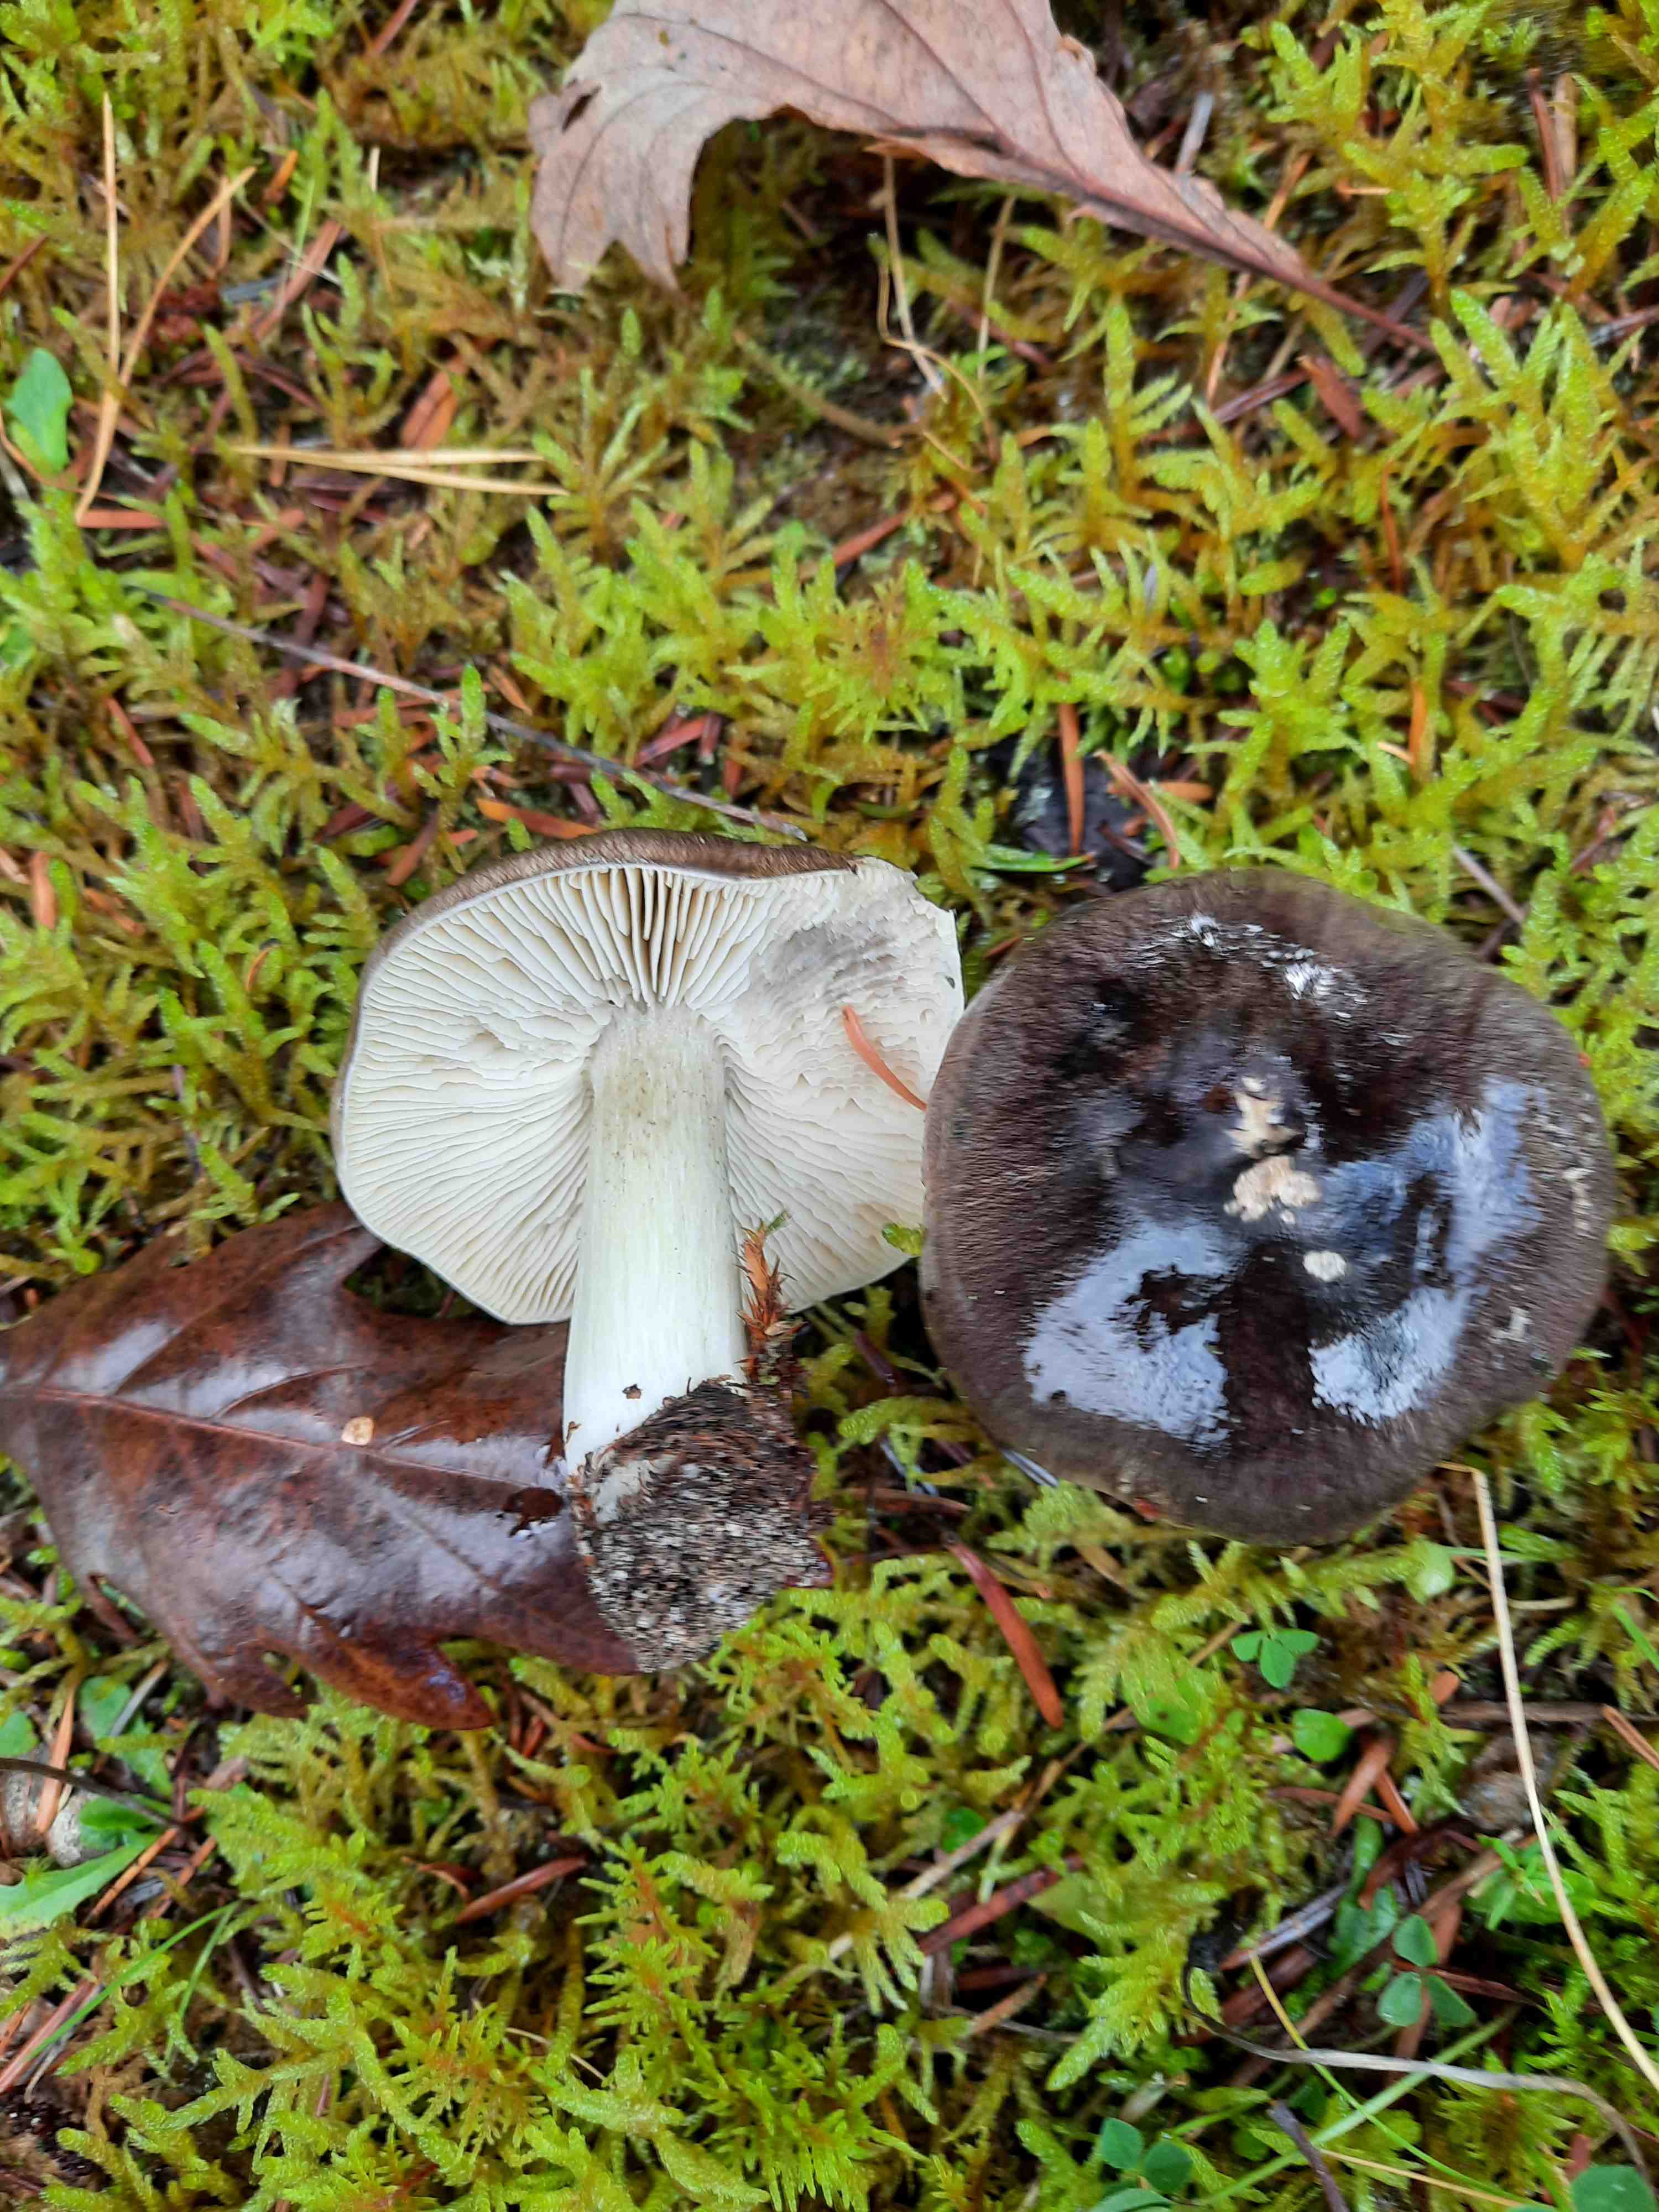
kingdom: Fungi
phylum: Basidiomycota
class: Agaricomycetes
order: Agaricales
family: Tricholomataceae
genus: Tricholoma
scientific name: Tricholoma portentosum
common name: grå ridderhat
